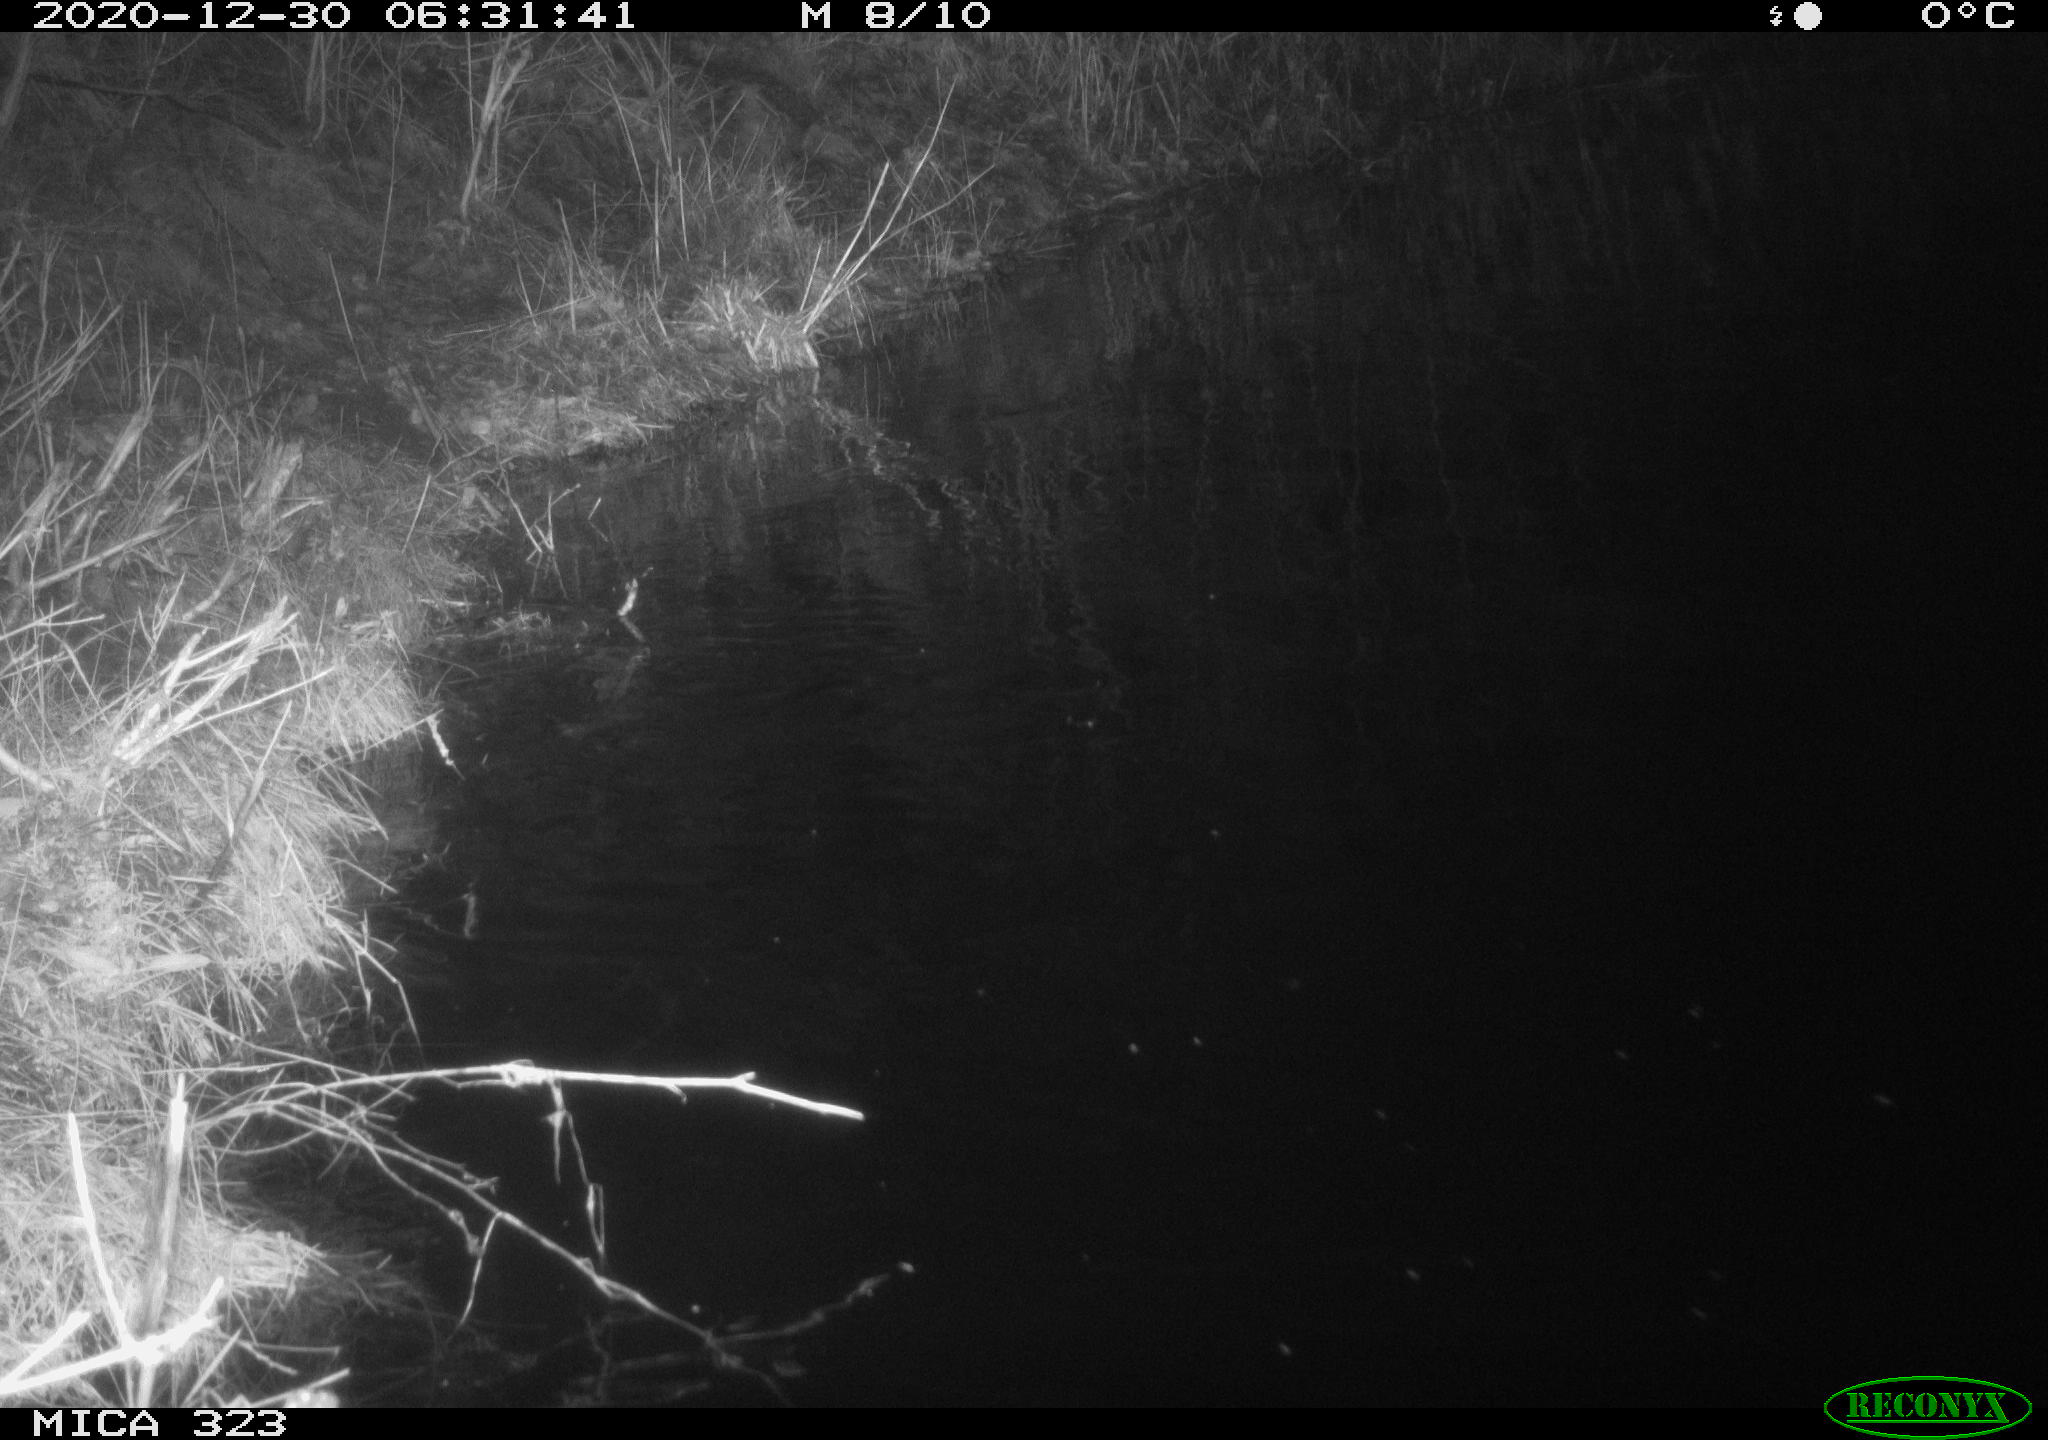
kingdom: Animalia
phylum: Chordata
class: Mammalia
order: Rodentia
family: Myocastoridae
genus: Myocastor
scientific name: Myocastor coypus
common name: Coypu
